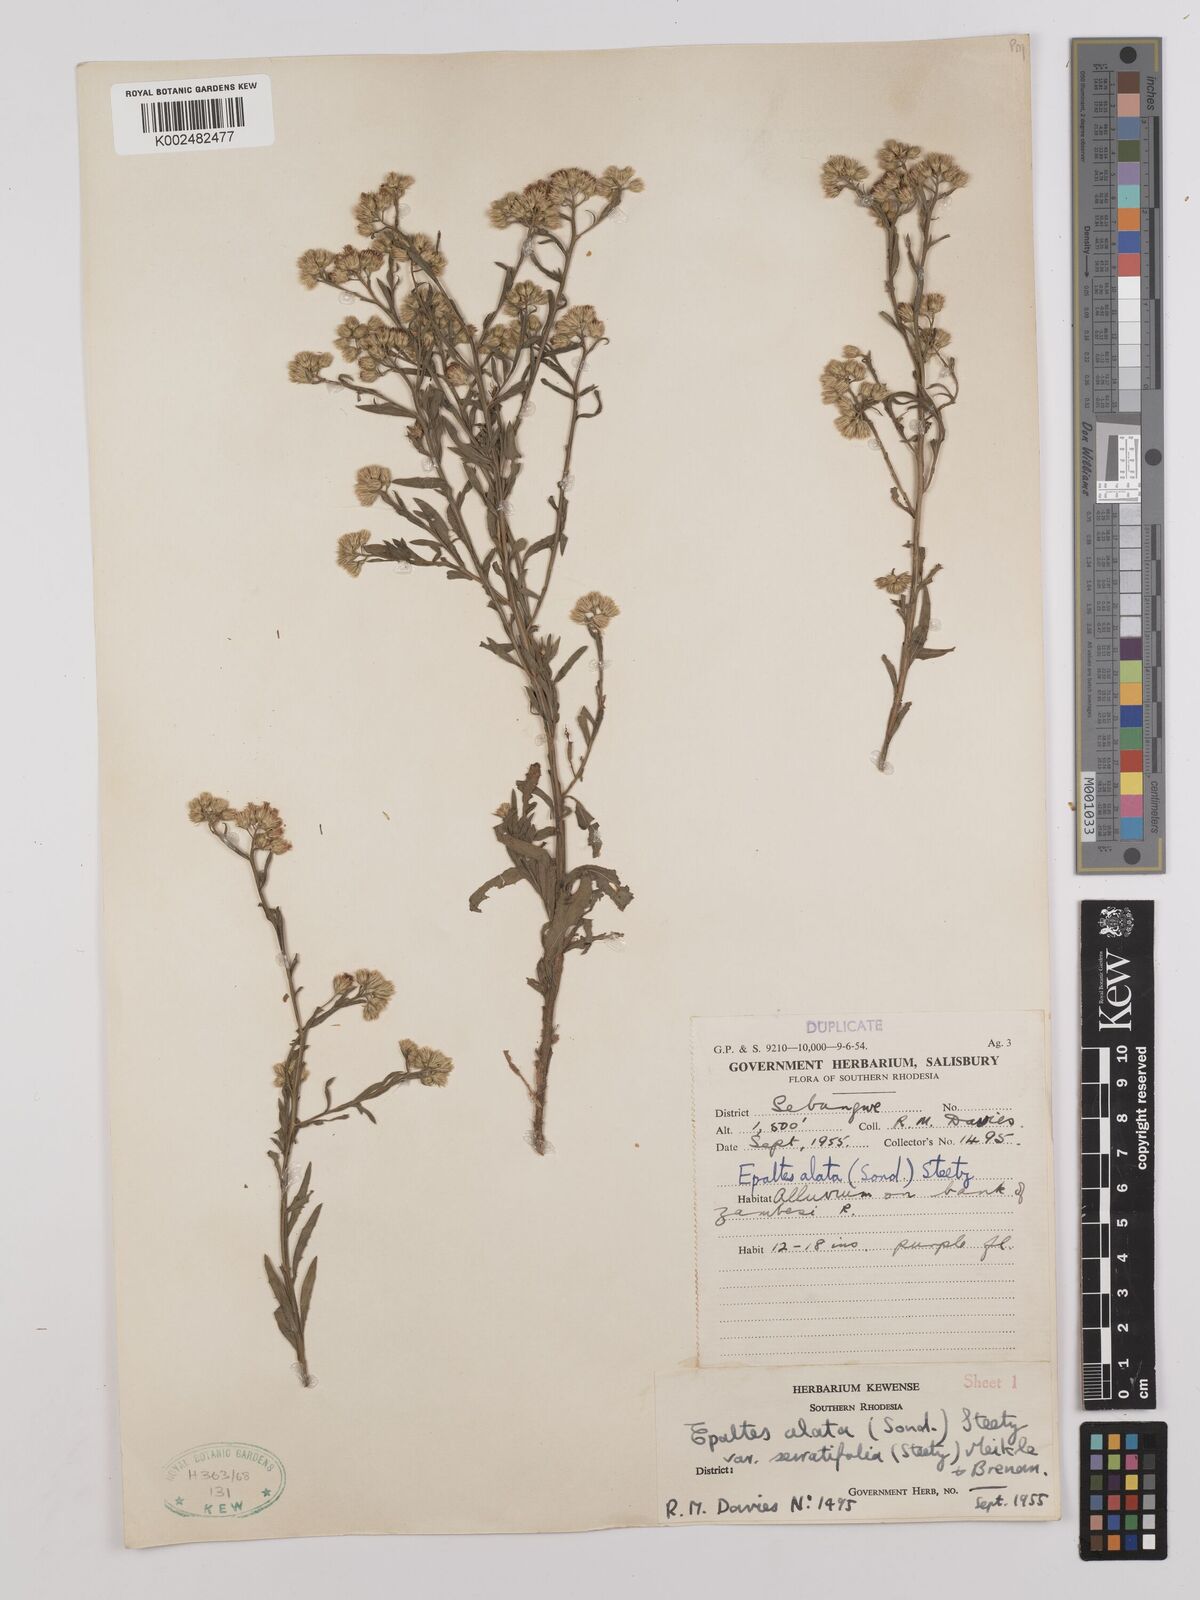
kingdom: Plantae
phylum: Tracheophyta
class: Magnoliopsida
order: Asterales
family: Asteraceae
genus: Litogyne
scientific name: Litogyne gariepina
